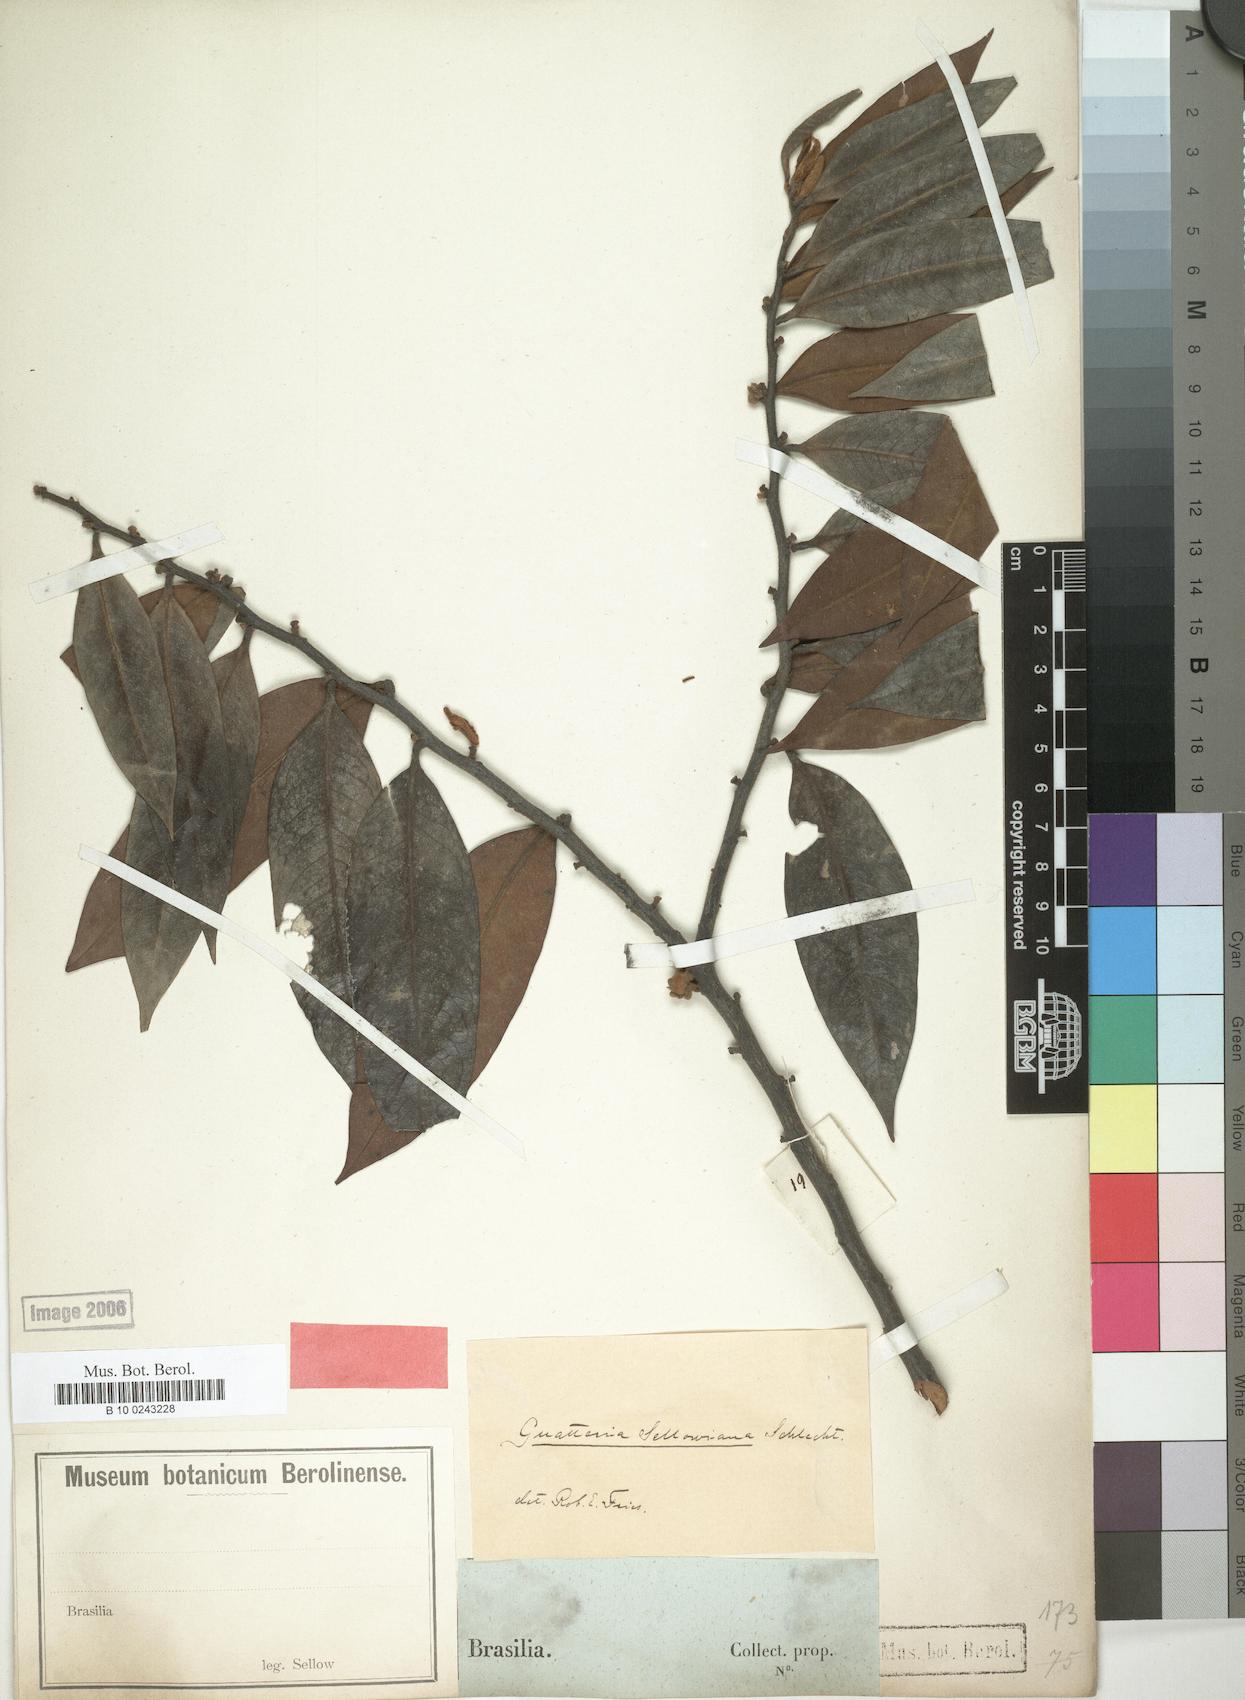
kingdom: Plantae
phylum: Tracheophyta
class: Magnoliopsida
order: Magnoliales
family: Annonaceae
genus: Guatteria
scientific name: Guatteria sellowiana
